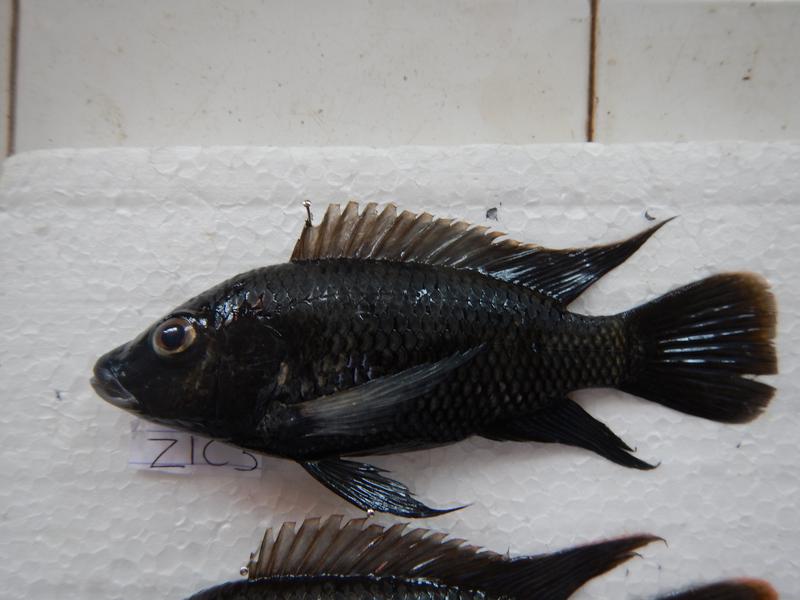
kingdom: Animalia
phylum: Chordata
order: Perciformes
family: Cichlidae
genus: Oreochromis
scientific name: Oreochromis urolepis
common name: Wami tilapia
